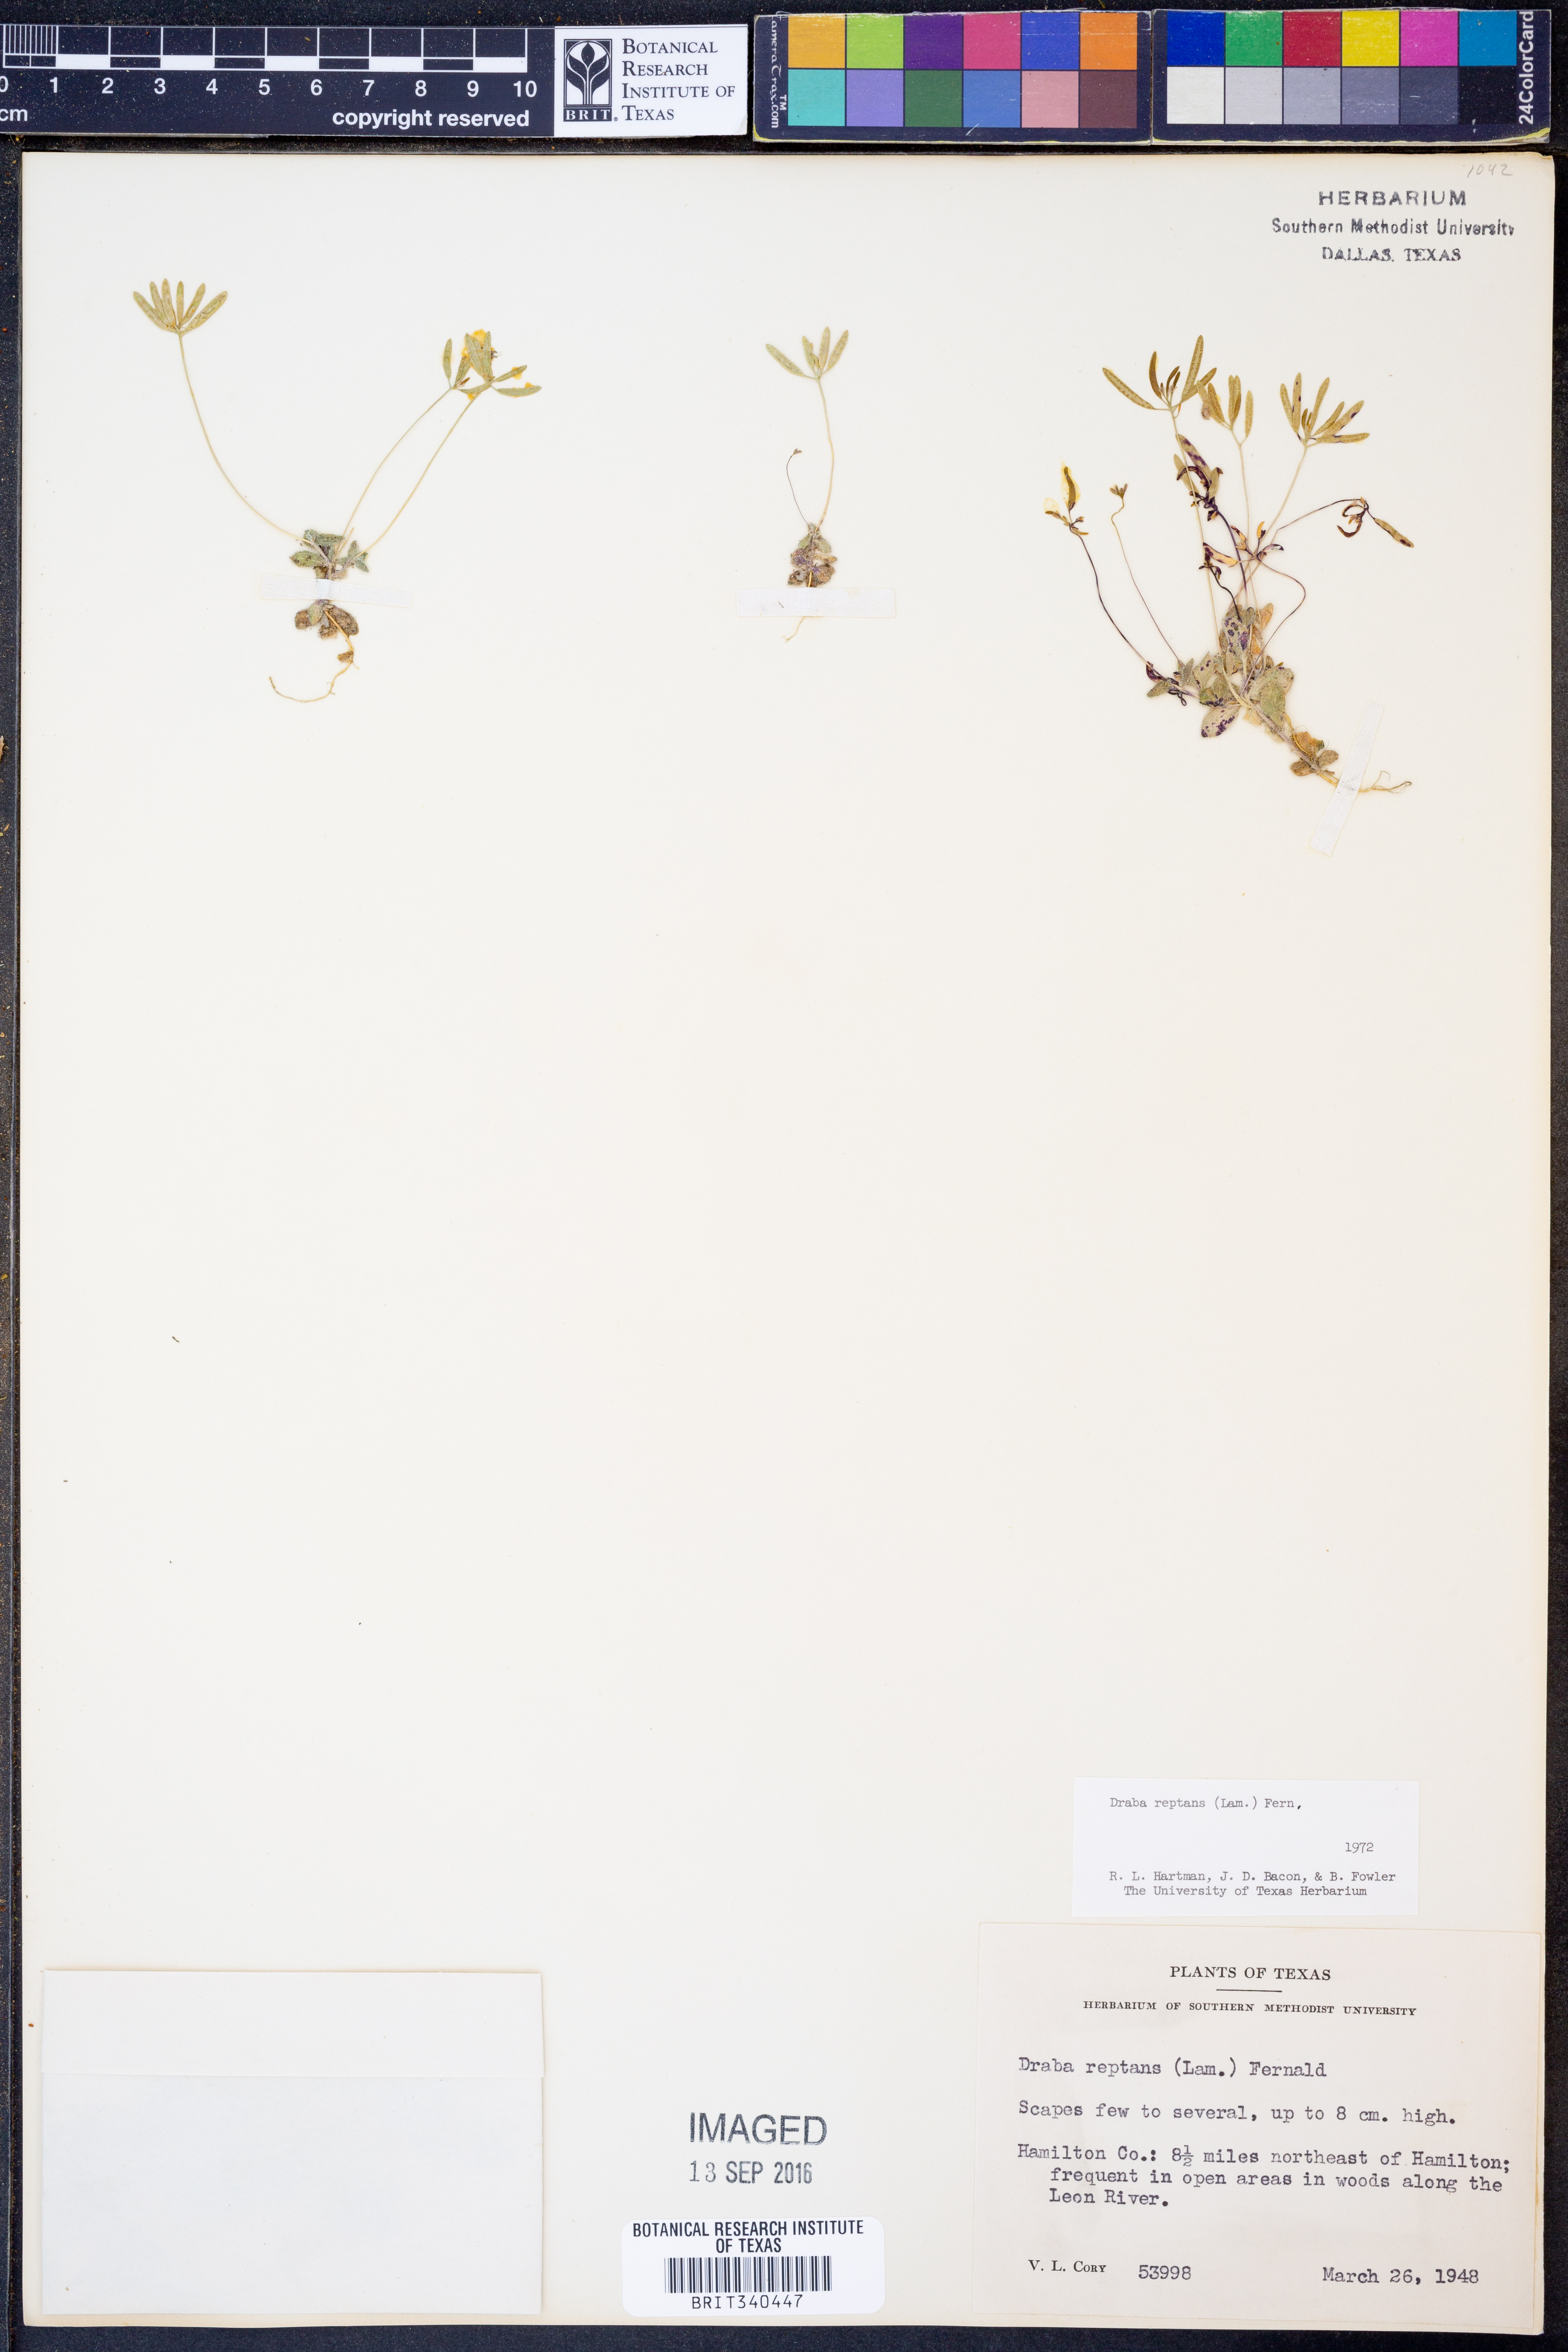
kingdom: Plantae
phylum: Tracheophyta
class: Magnoliopsida
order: Brassicales
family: Brassicaceae
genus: Tomostima
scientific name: Tomostima reptans
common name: Carolina draba
